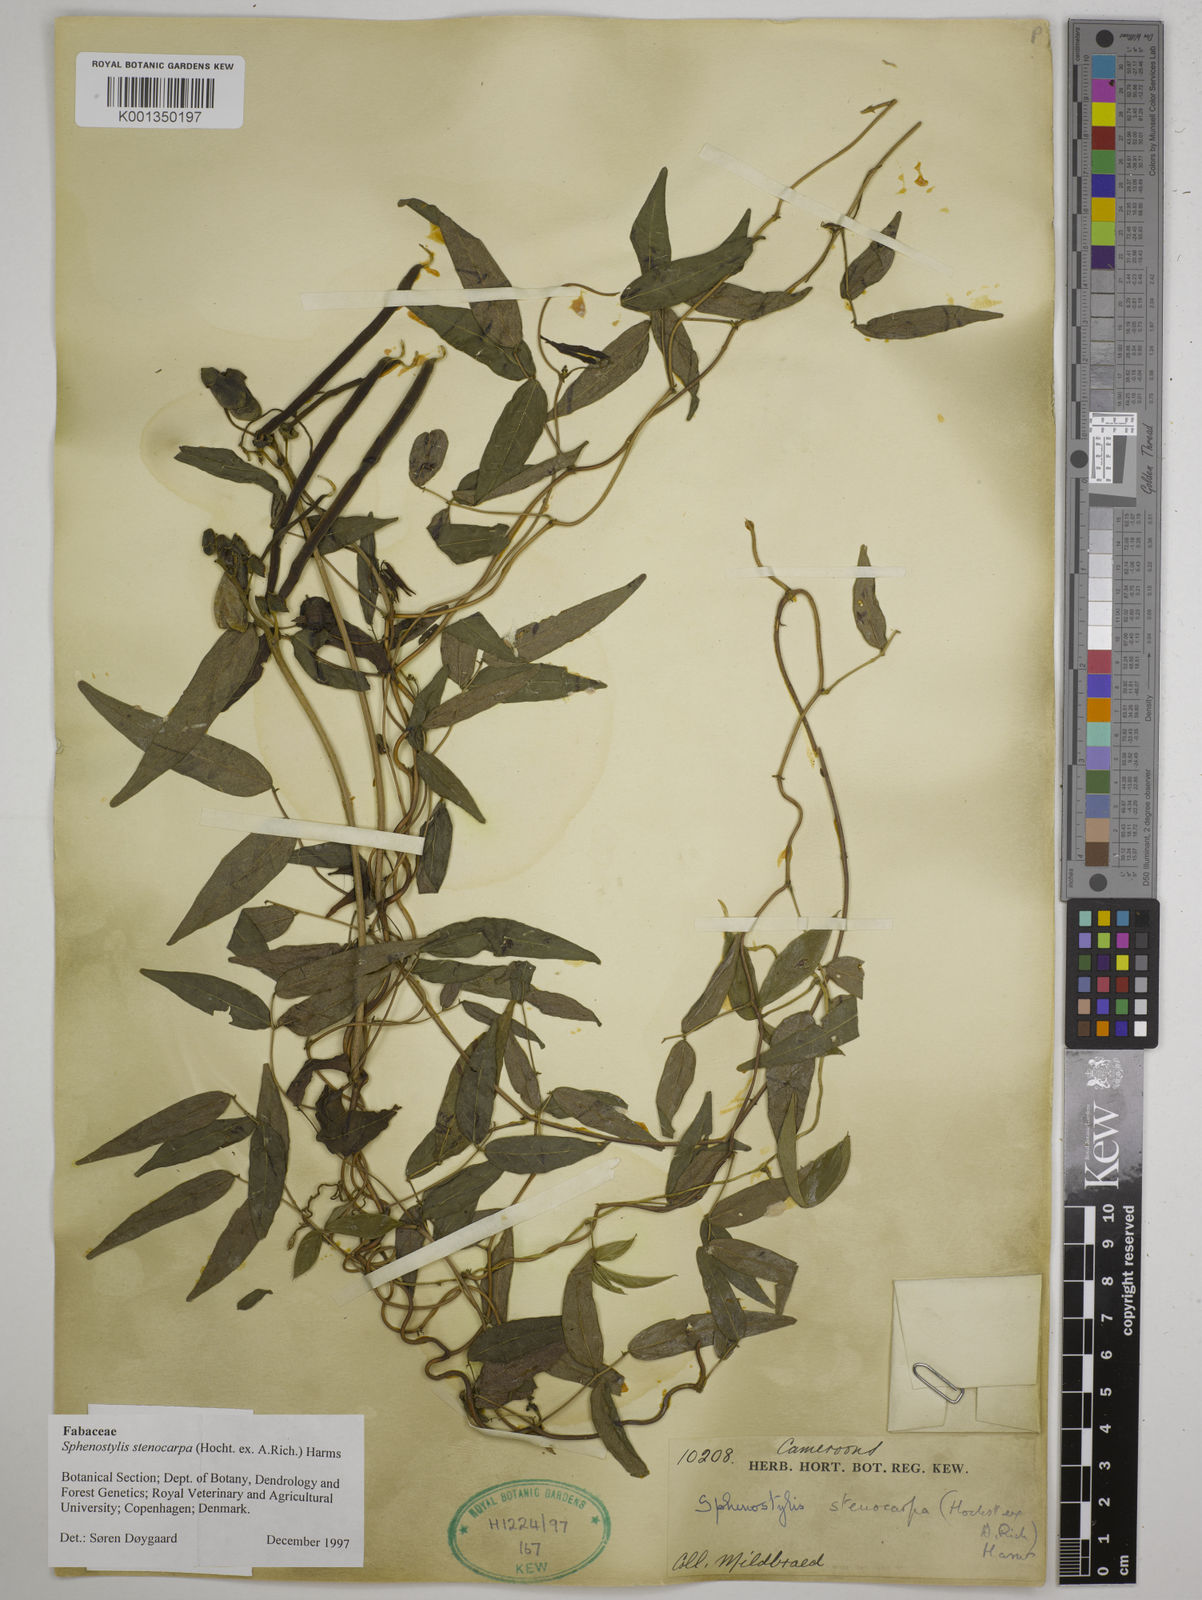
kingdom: Plantae
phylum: Tracheophyta
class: Magnoliopsida
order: Fabales
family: Fabaceae
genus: Sphenostylis
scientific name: Sphenostylis stenocarpa
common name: Yam-pea
